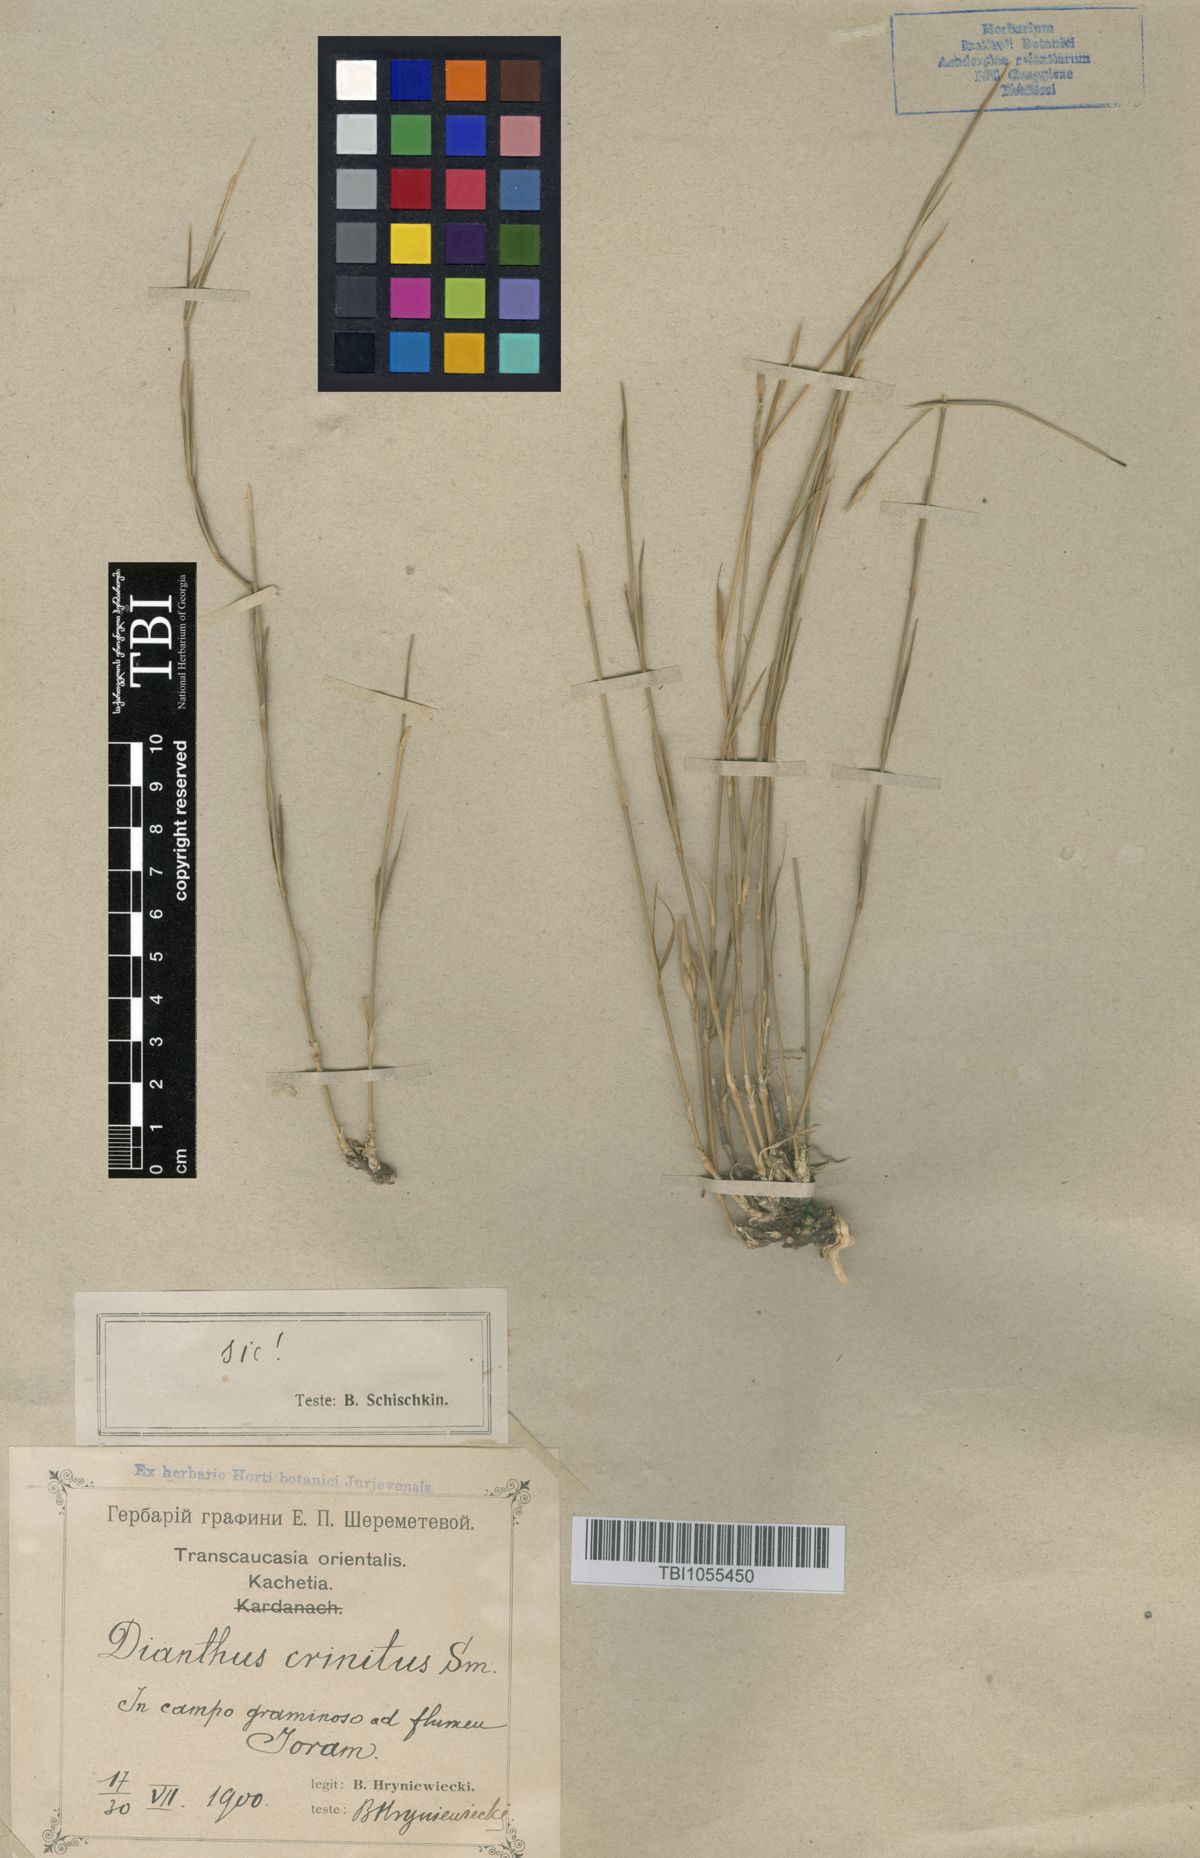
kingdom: Plantae
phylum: Tracheophyta
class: Magnoliopsida
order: Caryophyllales
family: Caryophyllaceae
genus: Dianthus
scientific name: Dianthus crinitus
